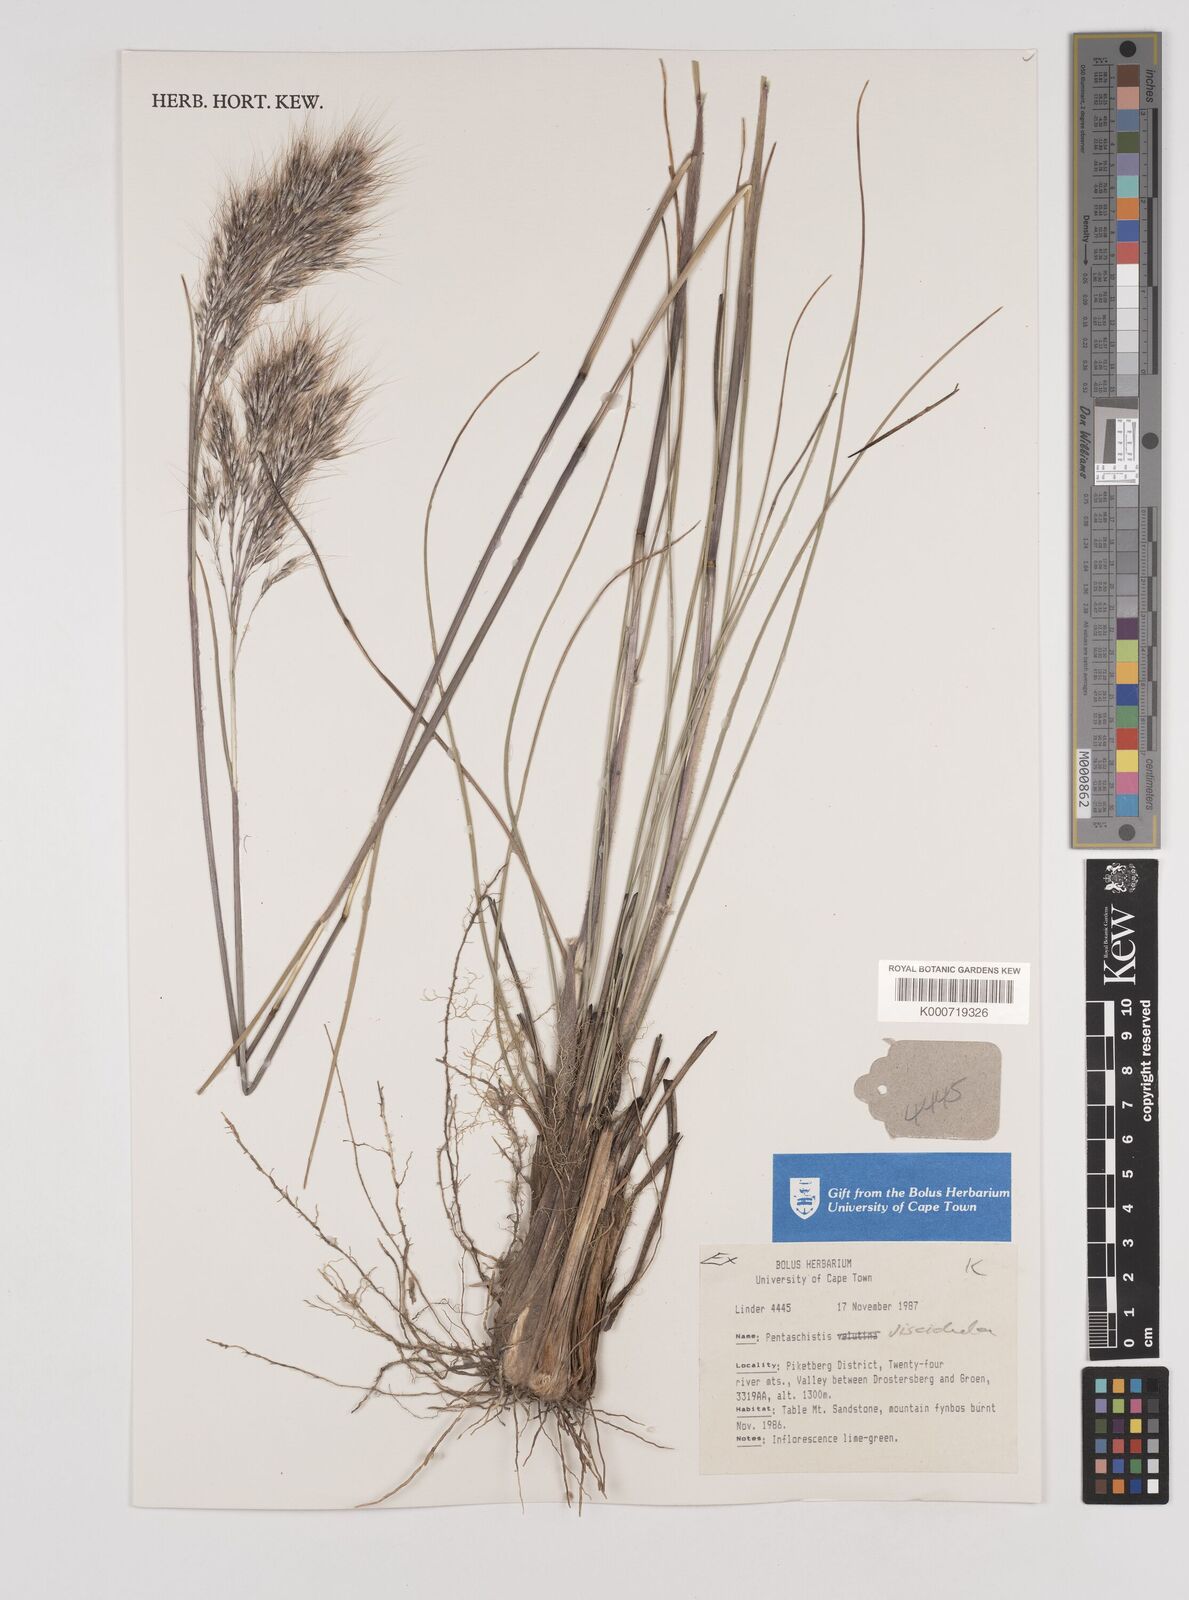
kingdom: Plantae
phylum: Tracheophyta
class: Liliopsida
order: Poales
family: Poaceae
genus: Pentameris
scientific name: Pentameris viscidula
